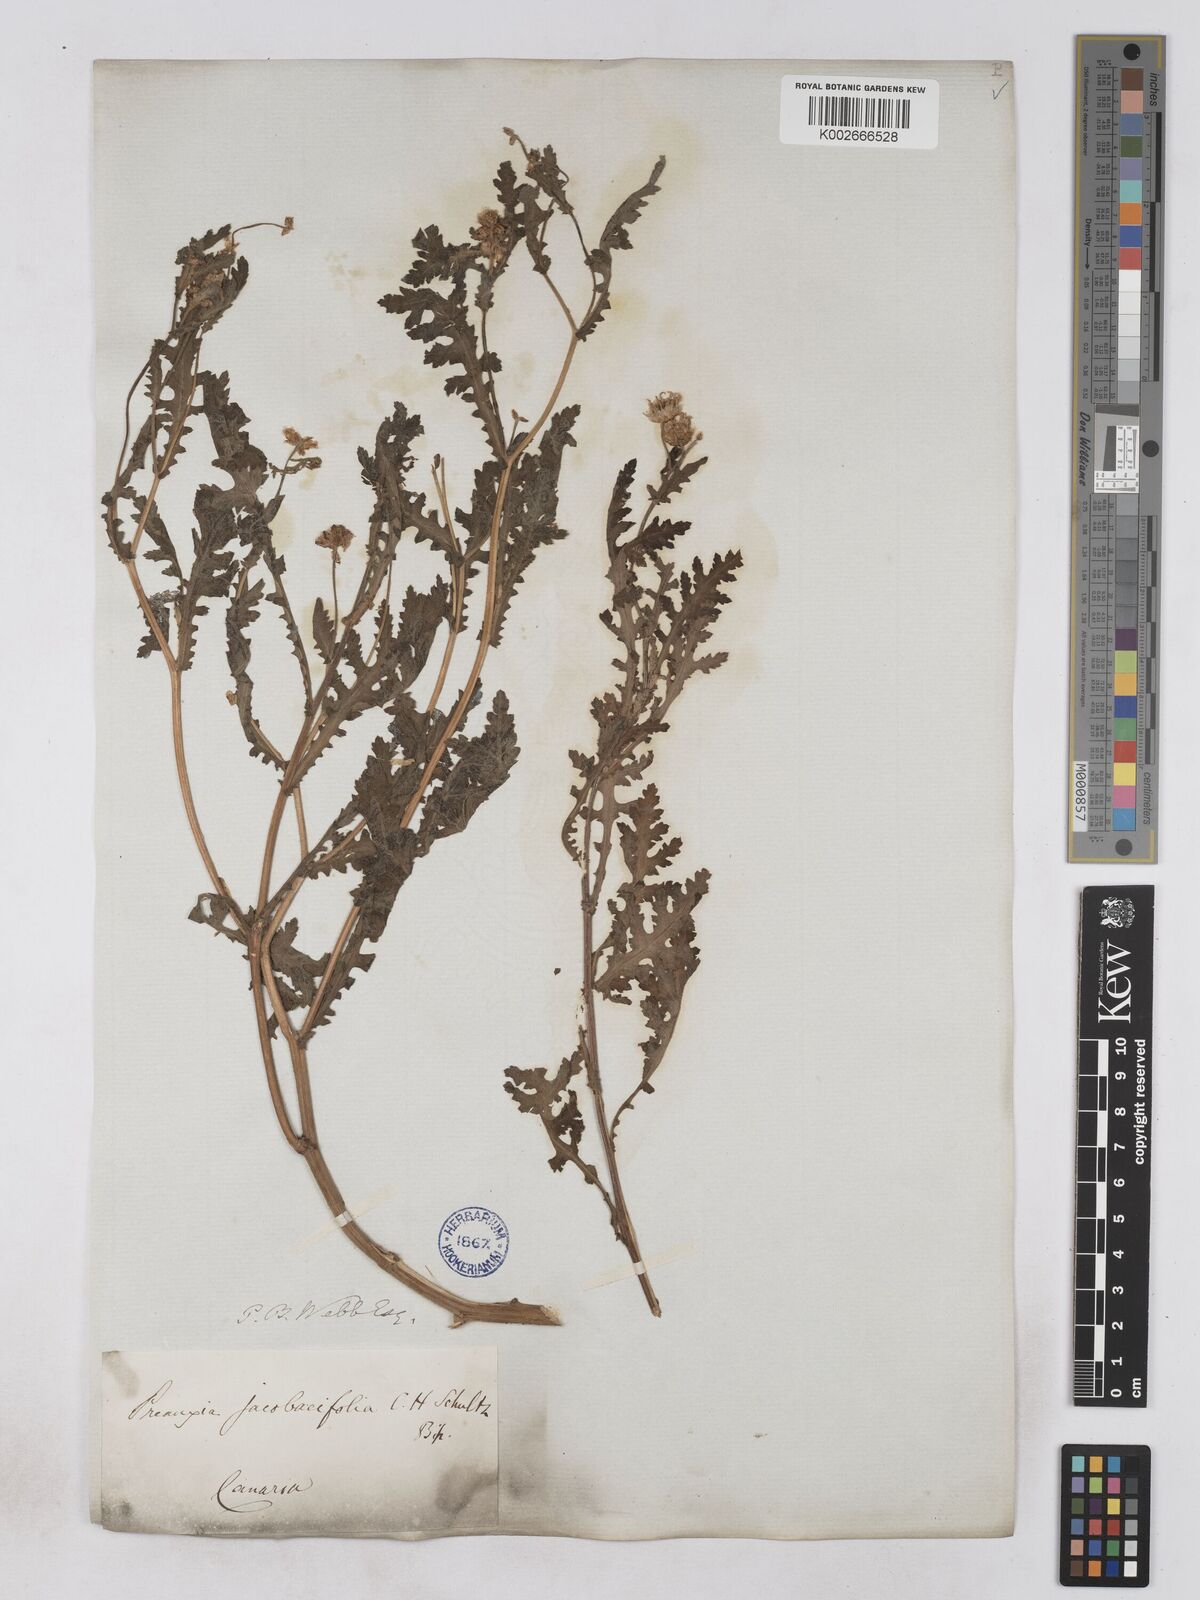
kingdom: Plantae
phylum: Tracheophyta
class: Magnoliopsida
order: Asterales
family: Asteraceae
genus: Argyranthemum
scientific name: Argyranthemum adauctum
